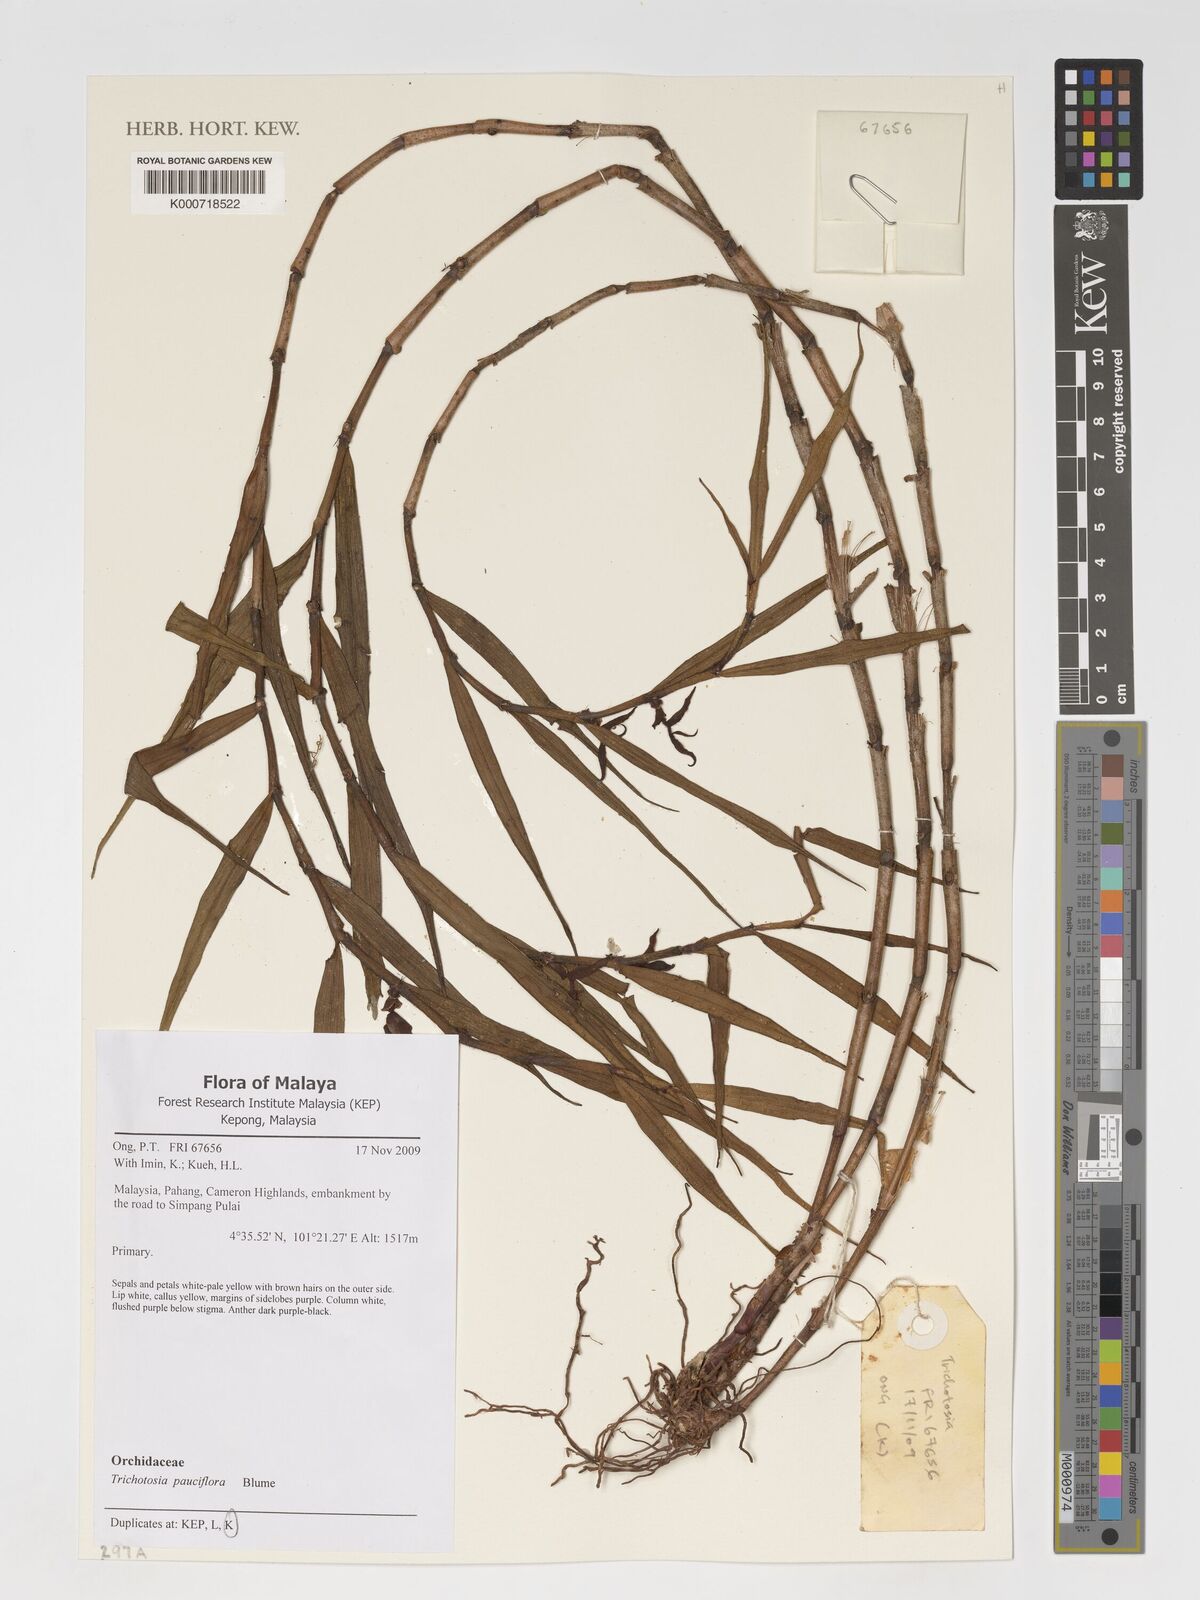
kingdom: Plantae
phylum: Tracheophyta
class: Liliopsida
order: Asparagales
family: Orchidaceae
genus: Trichotosia
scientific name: Trichotosia pauciflora
